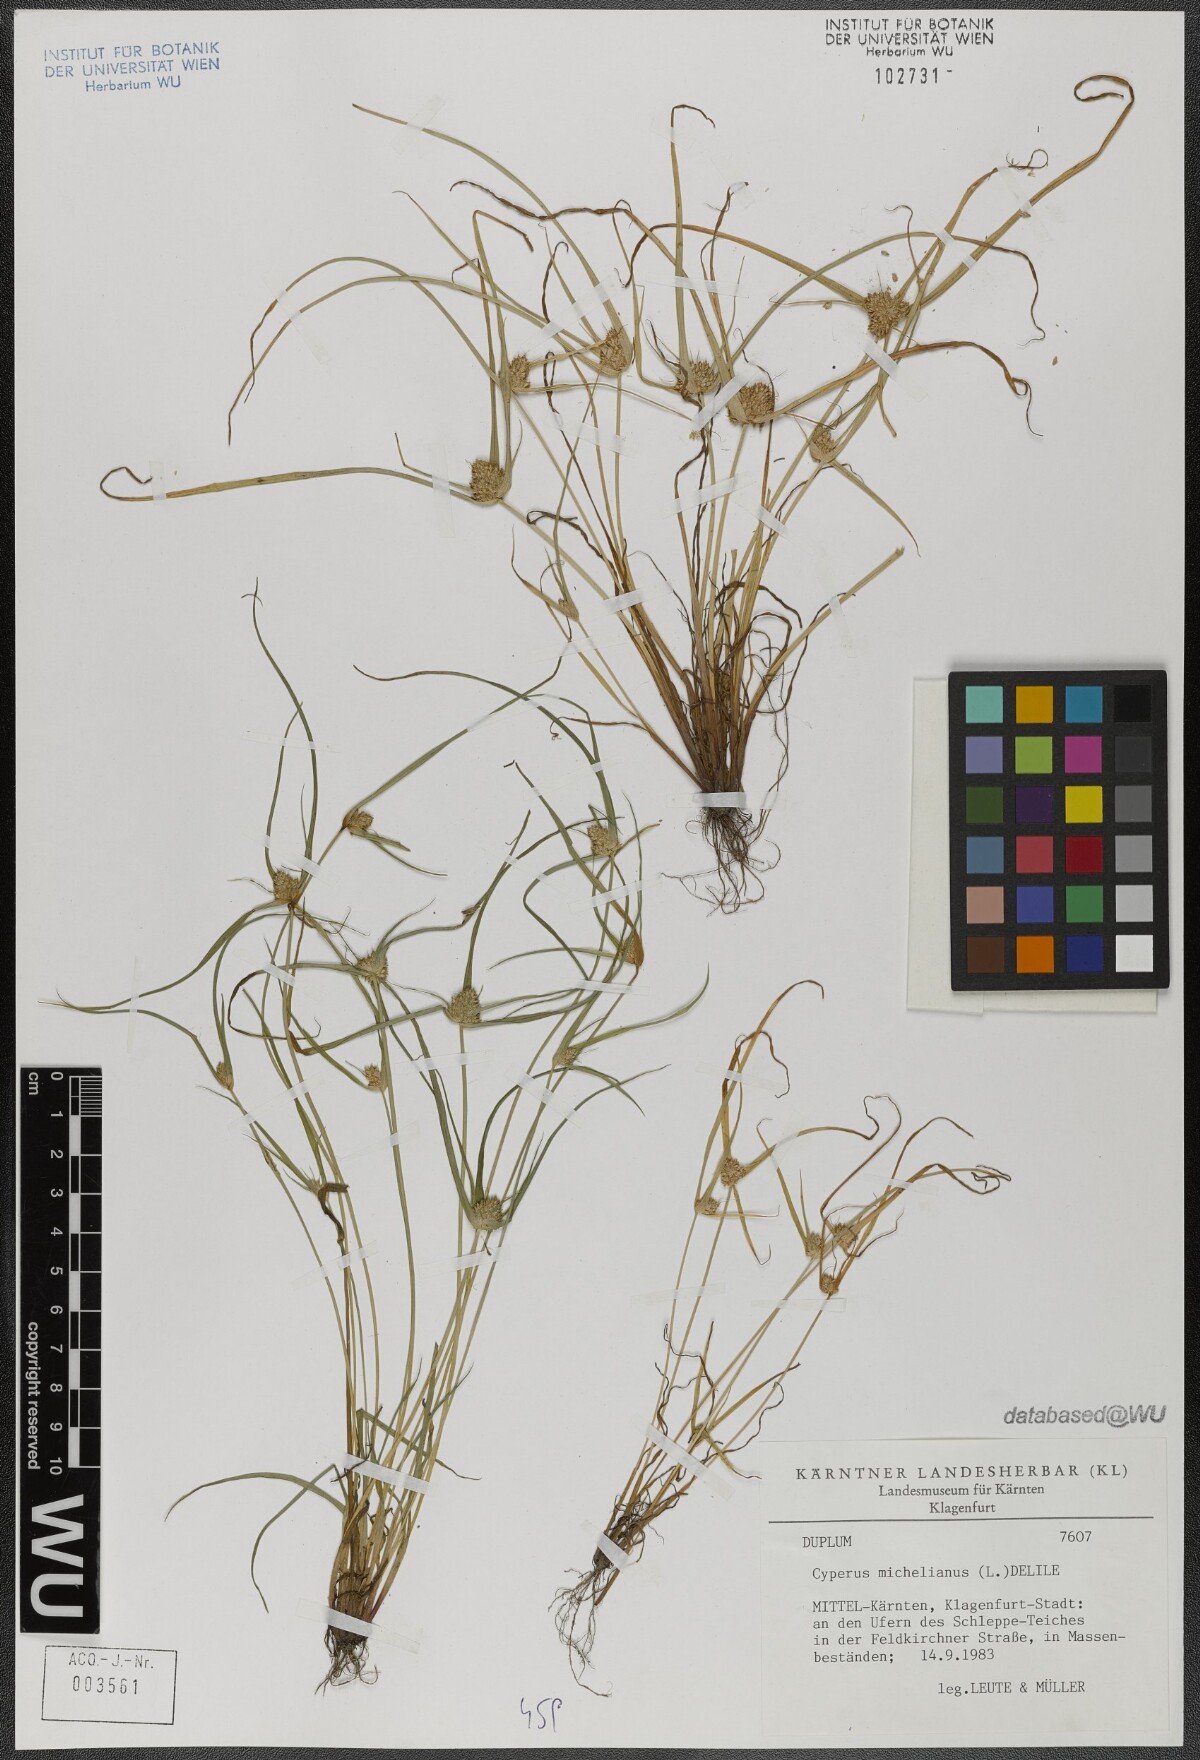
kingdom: Plantae
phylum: Tracheophyta
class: Liliopsida
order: Poales
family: Cyperaceae
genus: Cyperus
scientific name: Cyperus michelianus
